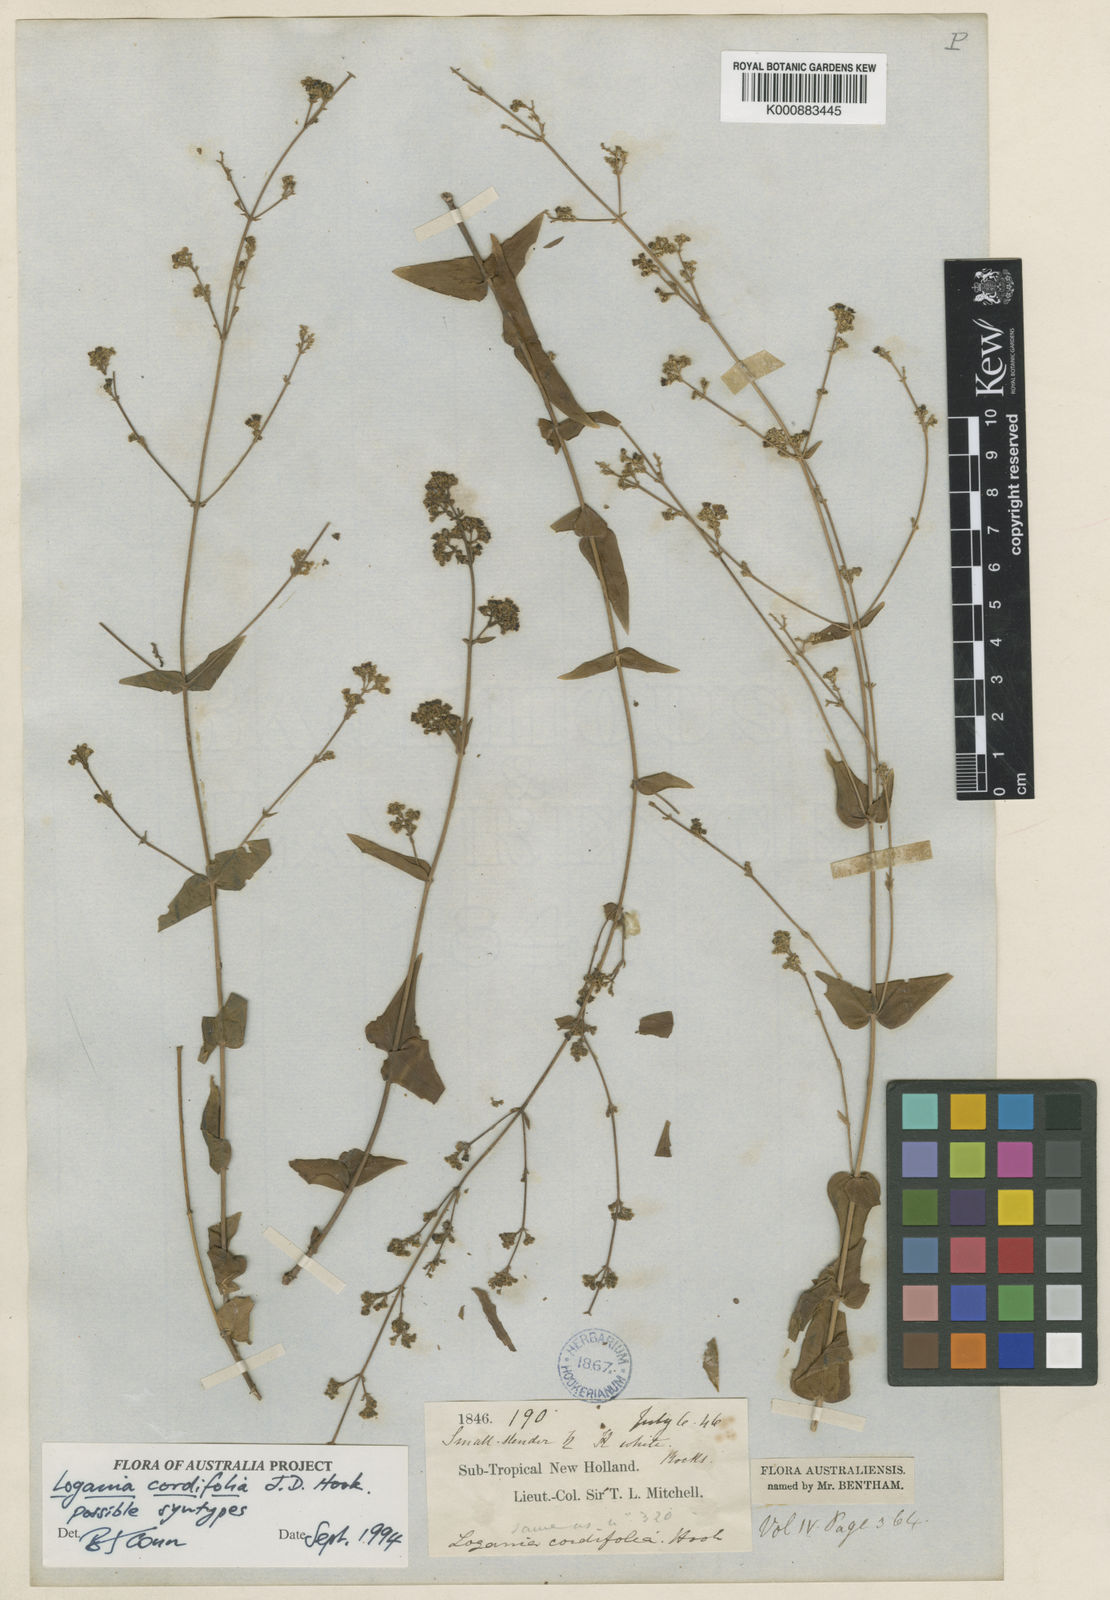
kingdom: Plantae
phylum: Tracheophyta
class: Magnoliopsida
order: Gentianales
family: Loganiaceae
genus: Logania
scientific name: Logania cordifolia
